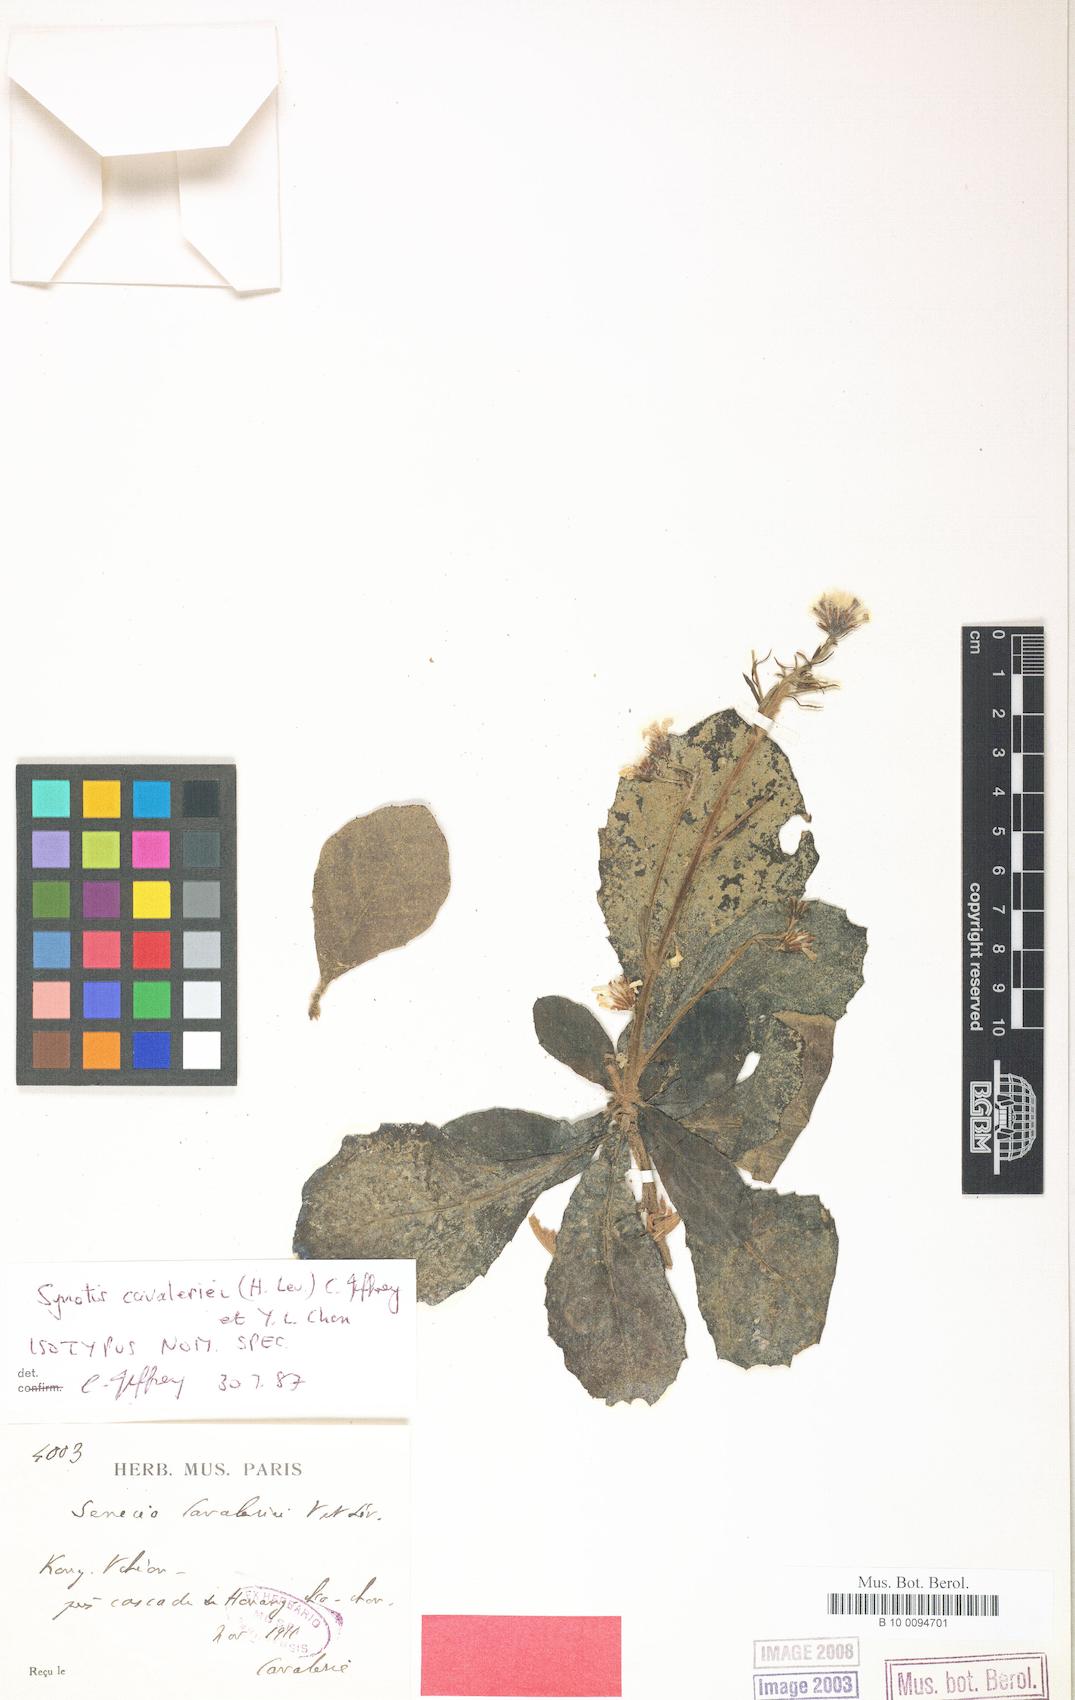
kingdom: Plantae
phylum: Tracheophyta
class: Magnoliopsida
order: Asterales
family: Asteraceae
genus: Synotis
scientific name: Synotis cavaleriei
